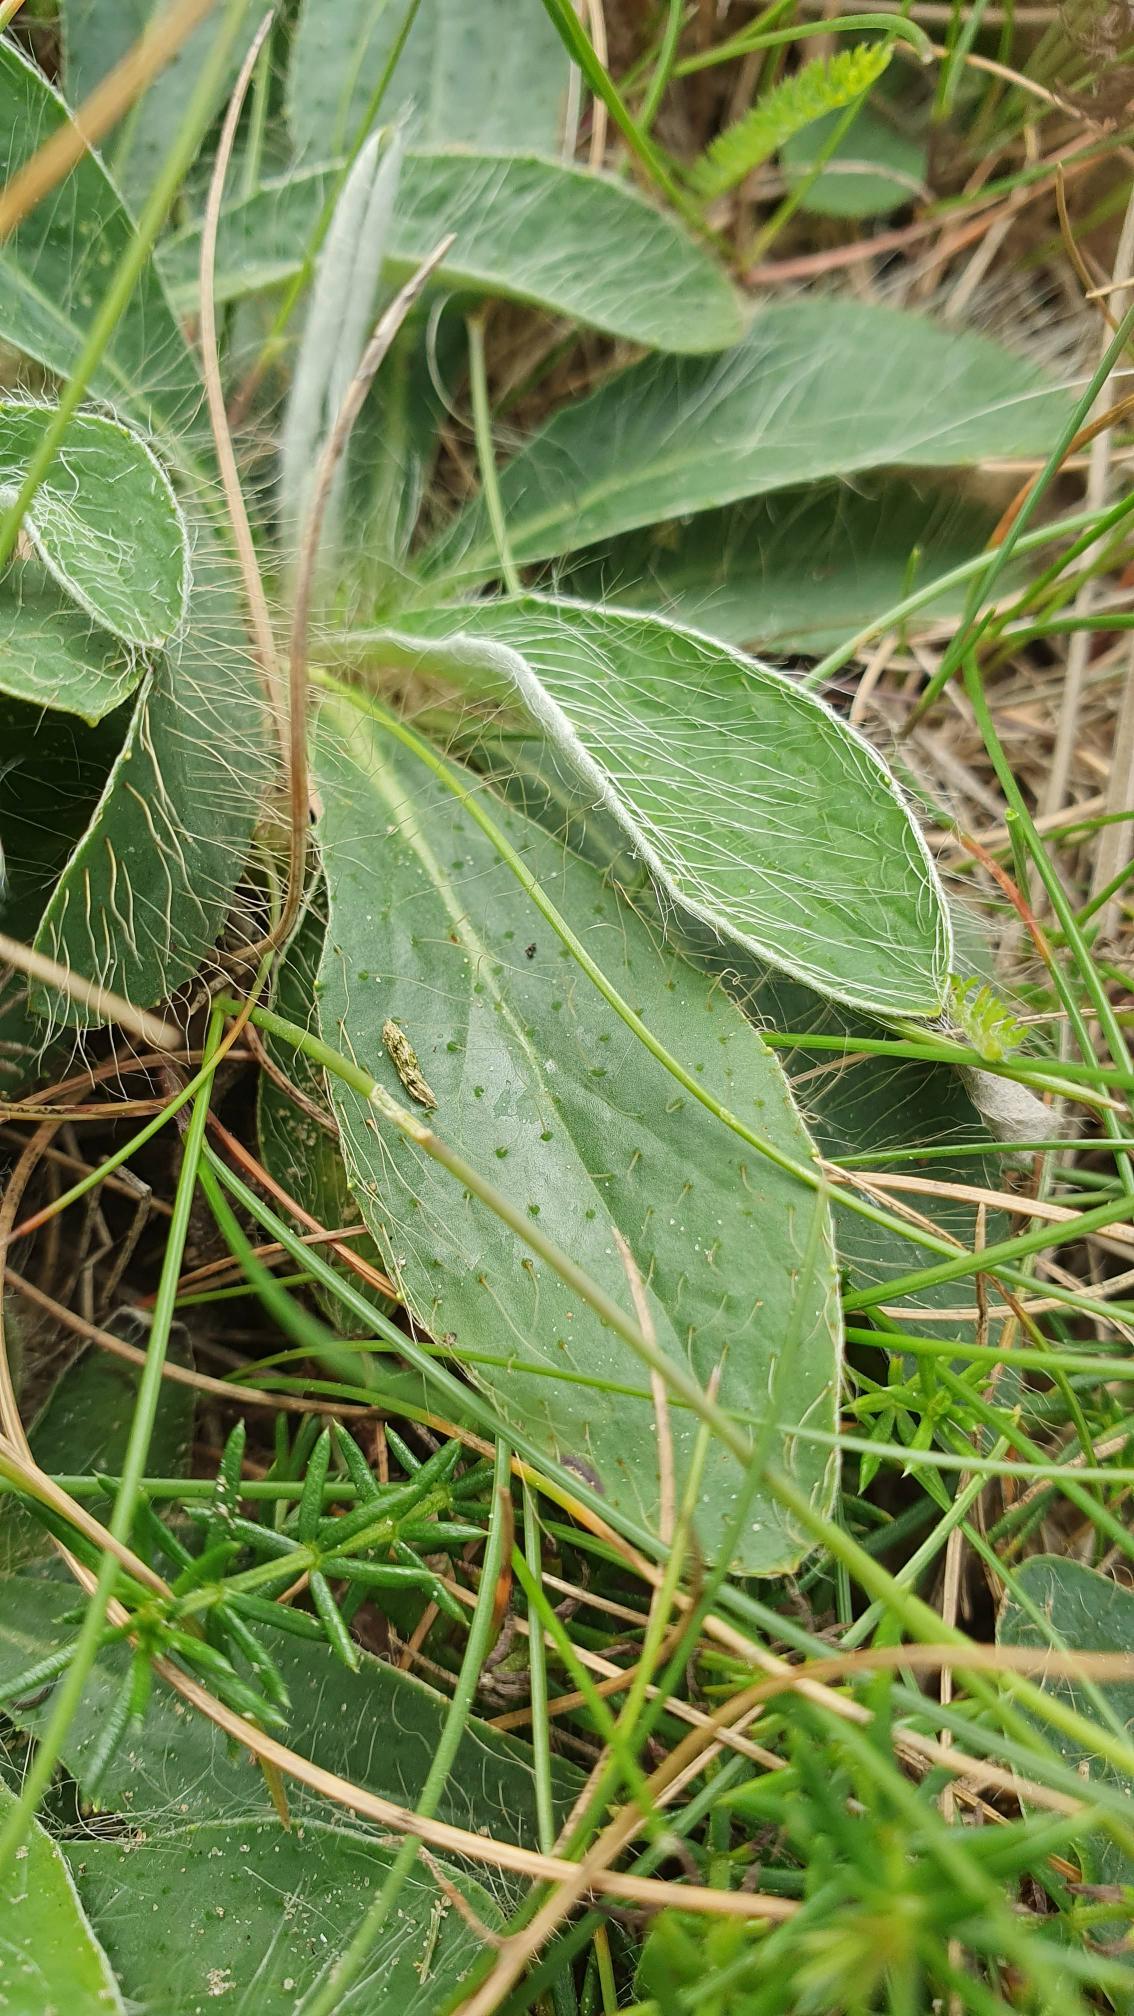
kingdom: Plantae
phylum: Tracheophyta
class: Magnoliopsida
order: Asterales
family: Asteraceae
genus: Pilosella
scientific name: Pilosella officinarum
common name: Håret høgeurt
